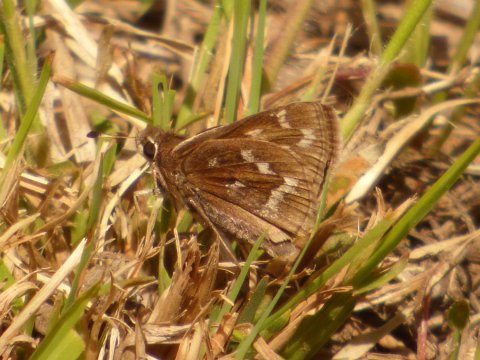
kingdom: Animalia
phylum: Arthropoda
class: Insecta
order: Lepidoptera
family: Hesperiidae
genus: Hesperia
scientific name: Hesperia metea
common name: Cobweb Skipper
